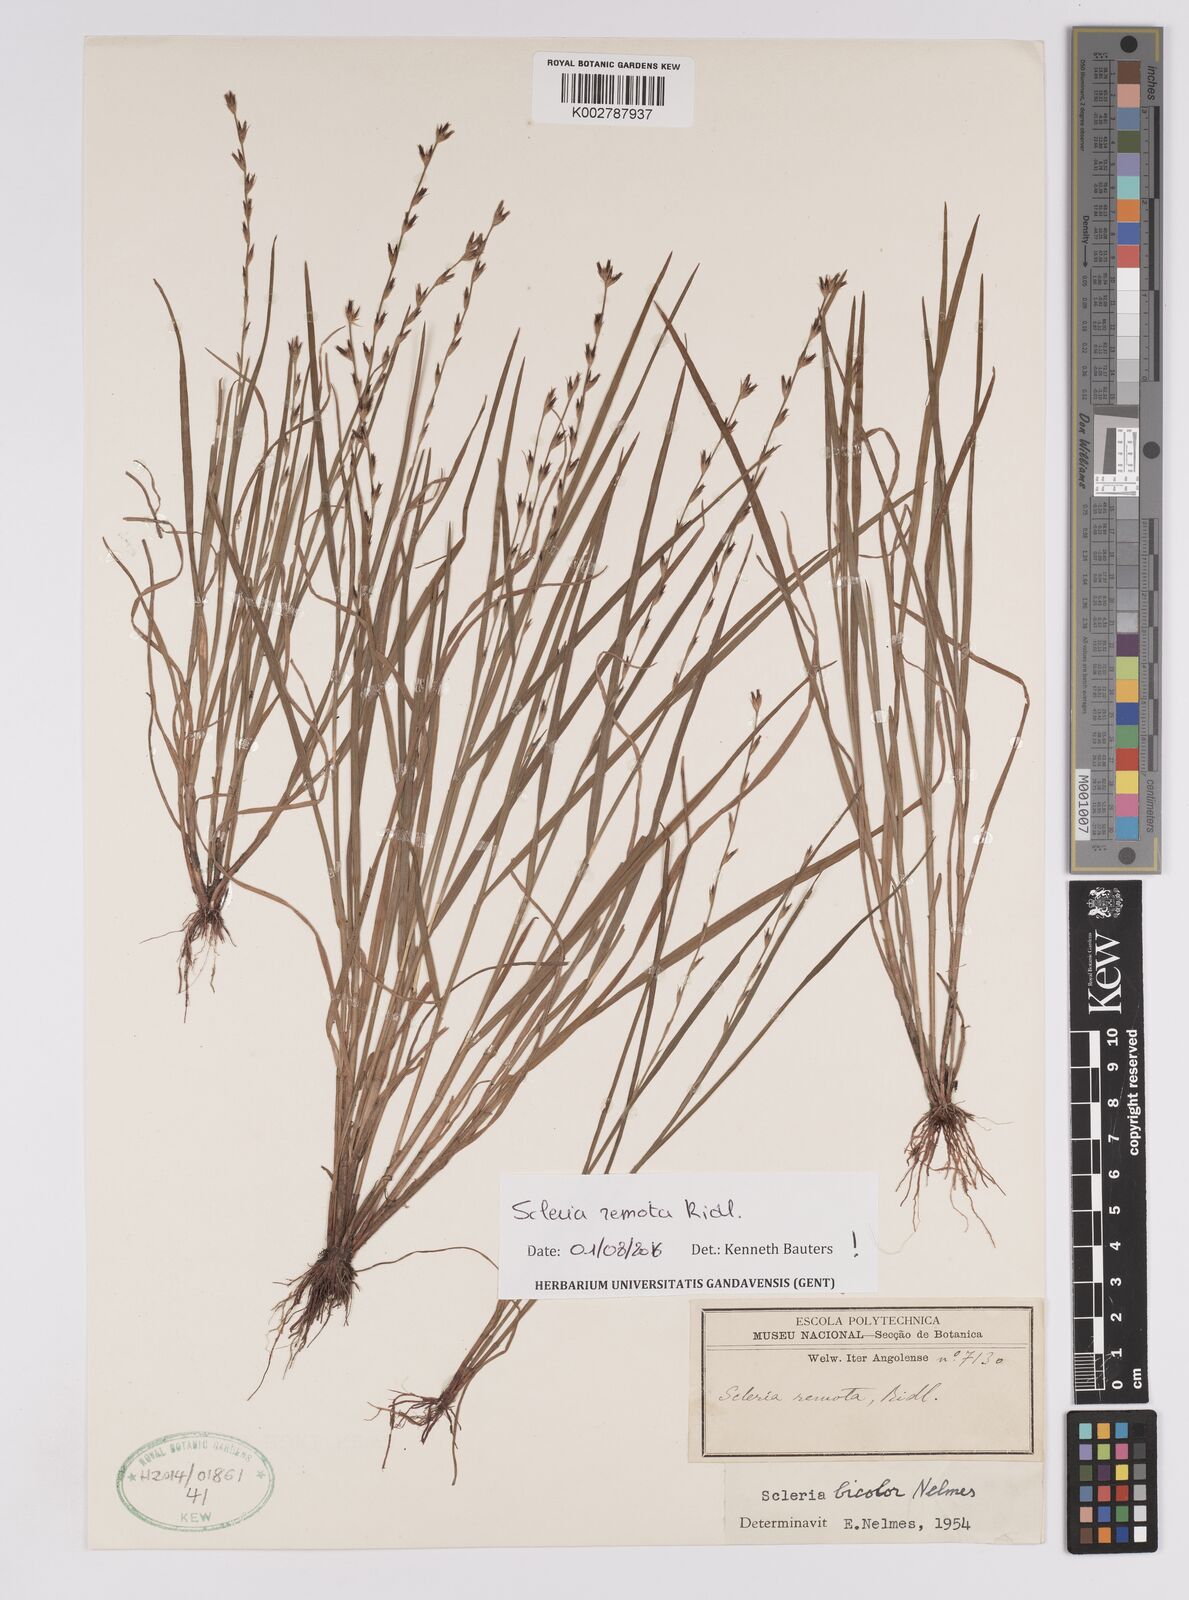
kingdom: Plantae
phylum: Tracheophyta
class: Liliopsida
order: Poales
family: Cyperaceae
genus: Scleria
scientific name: Scleria remota
